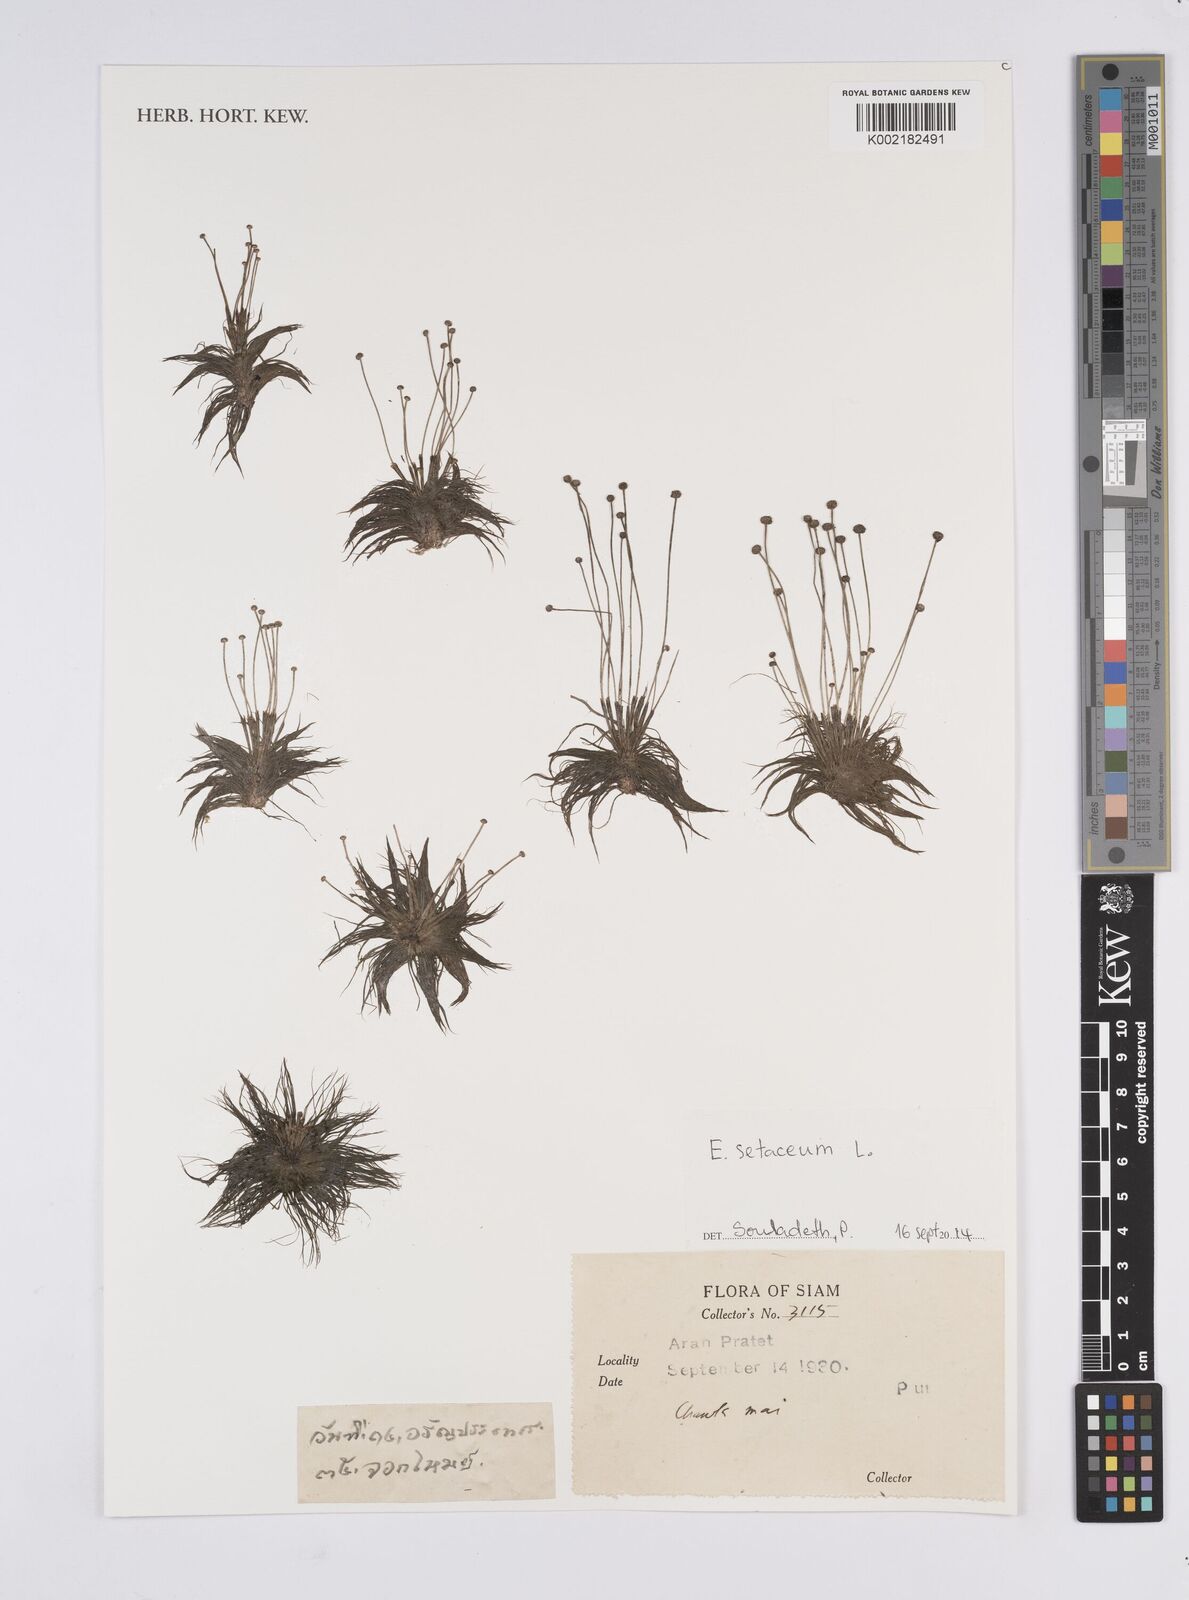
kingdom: Plantae
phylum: Tracheophyta
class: Liliopsida
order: Poales
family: Eriocaulaceae
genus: Eriocaulon
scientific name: Eriocaulon setaceum
